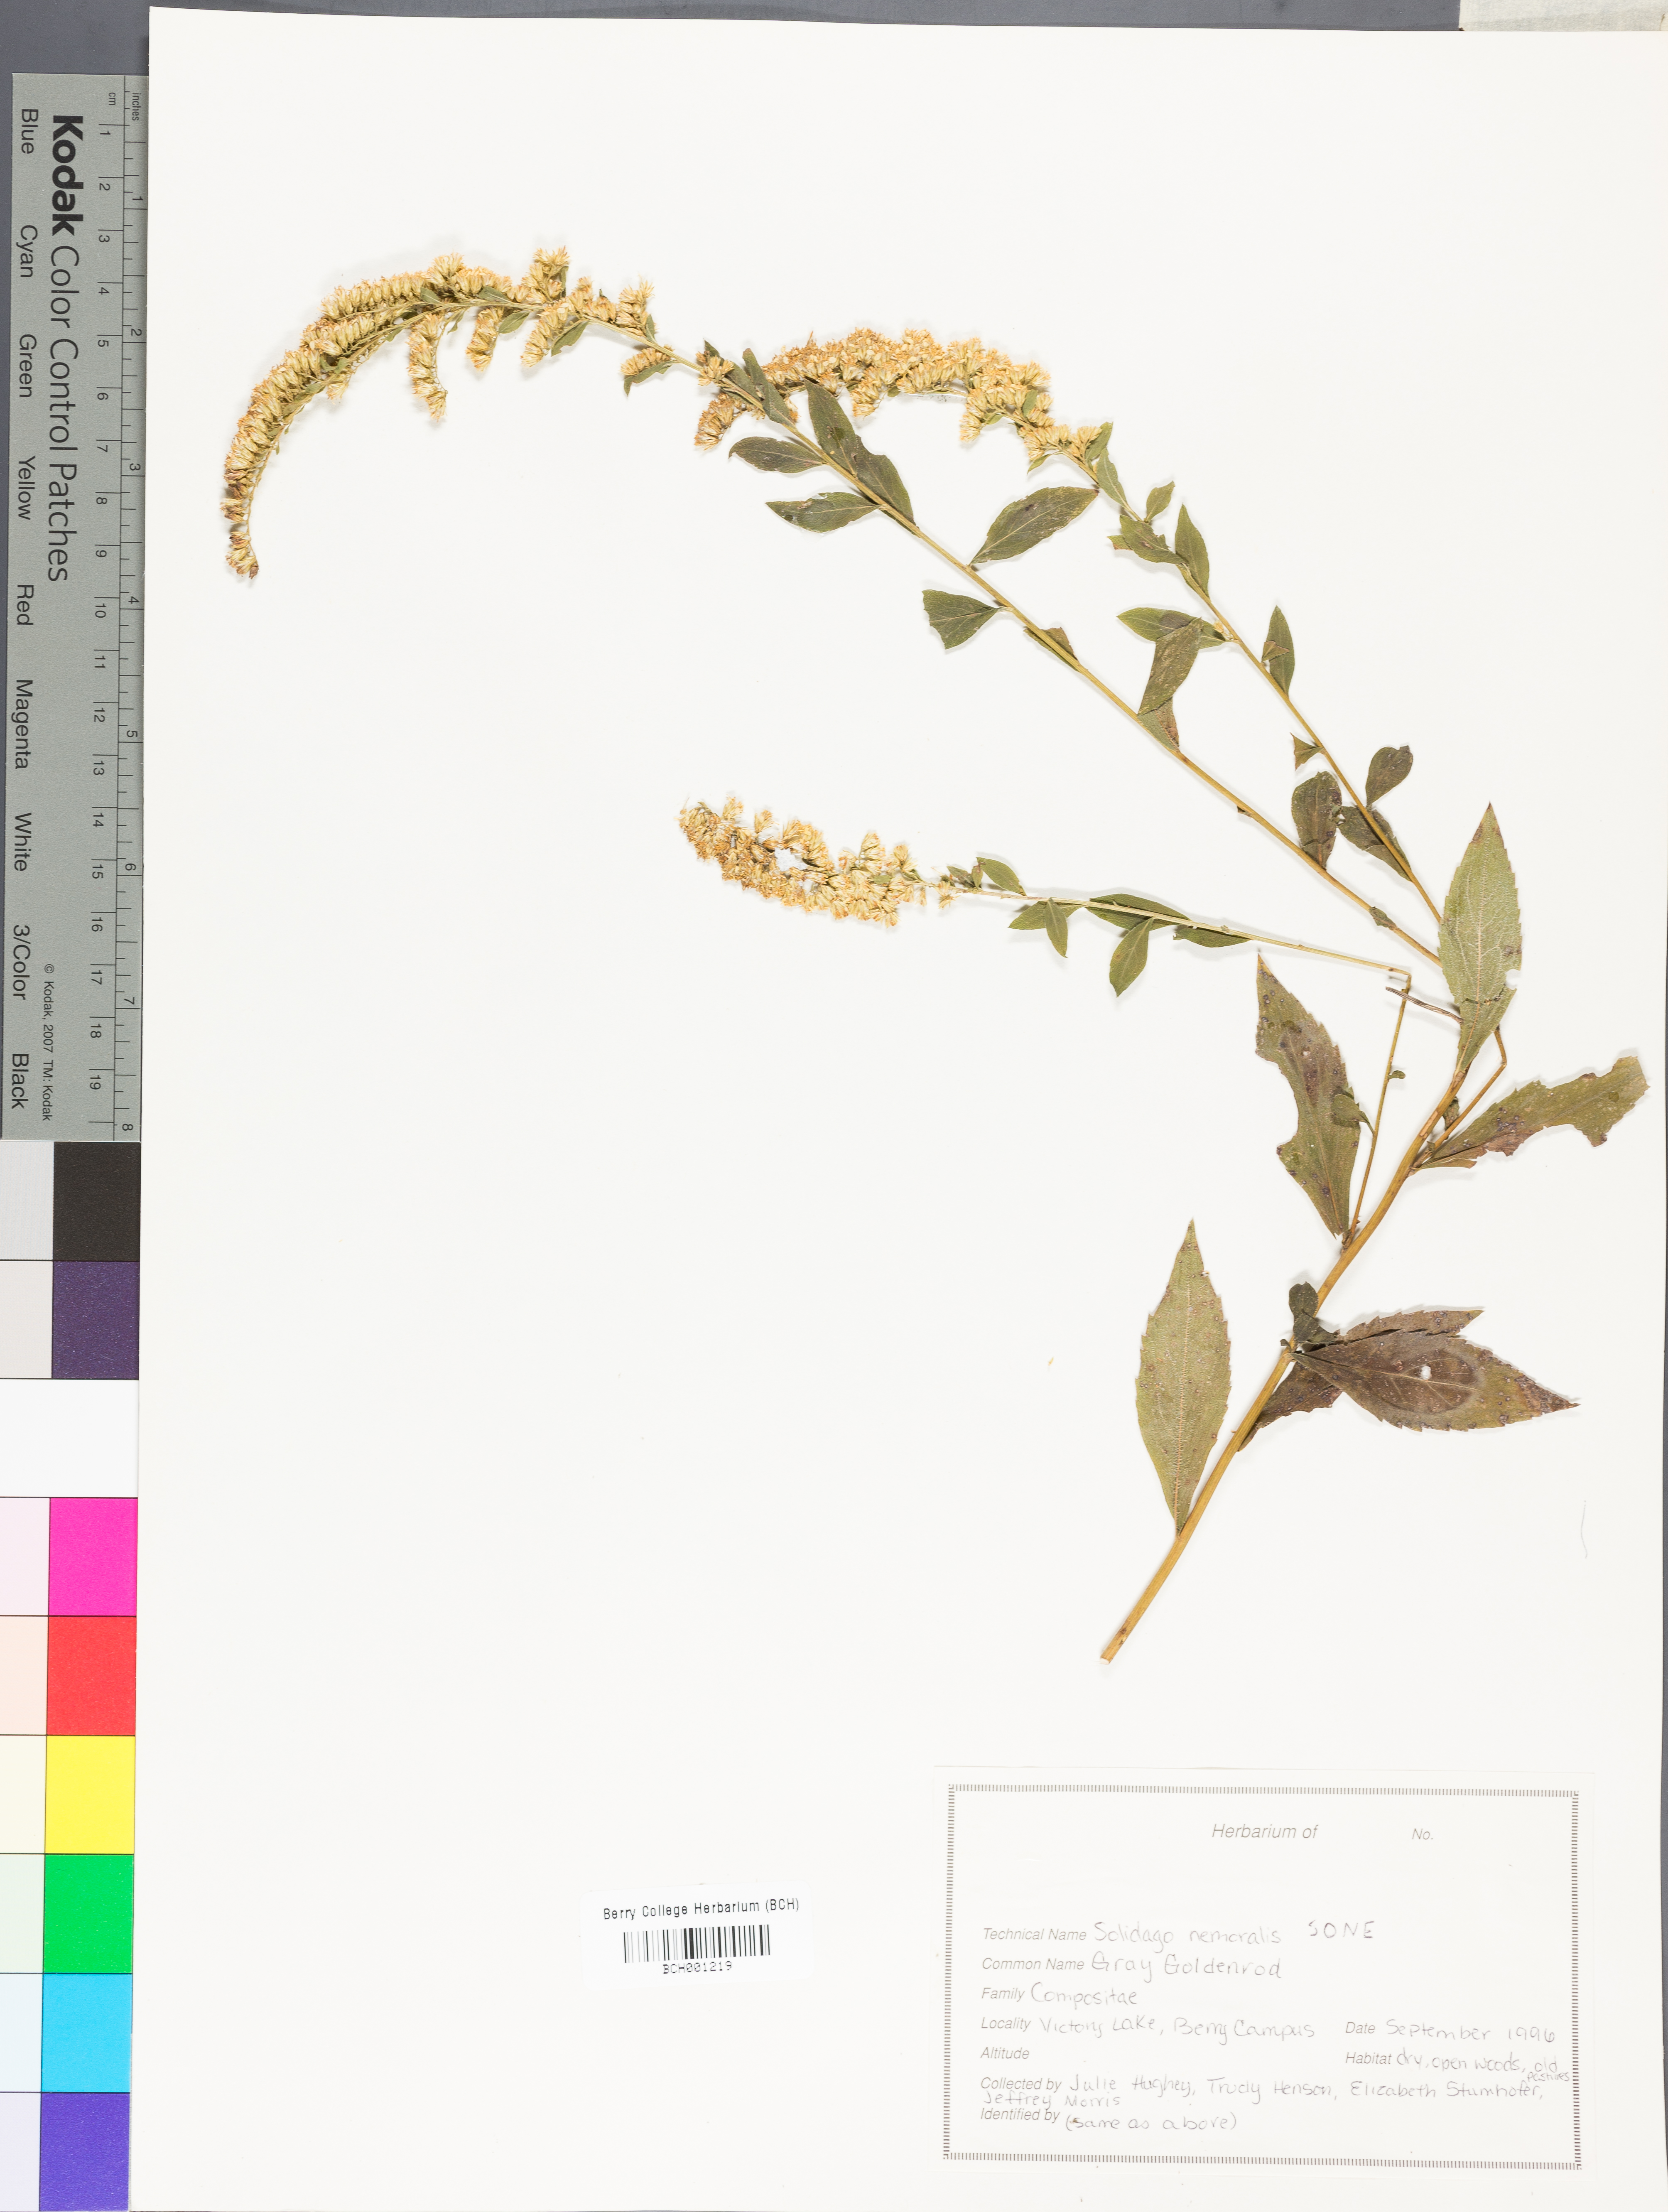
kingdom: Plantae
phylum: Tracheophyta
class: Magnoliopsida
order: Asterales
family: Asteraceae
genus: Solidago
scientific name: Solidago nemoralis
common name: Grey goldenrod
